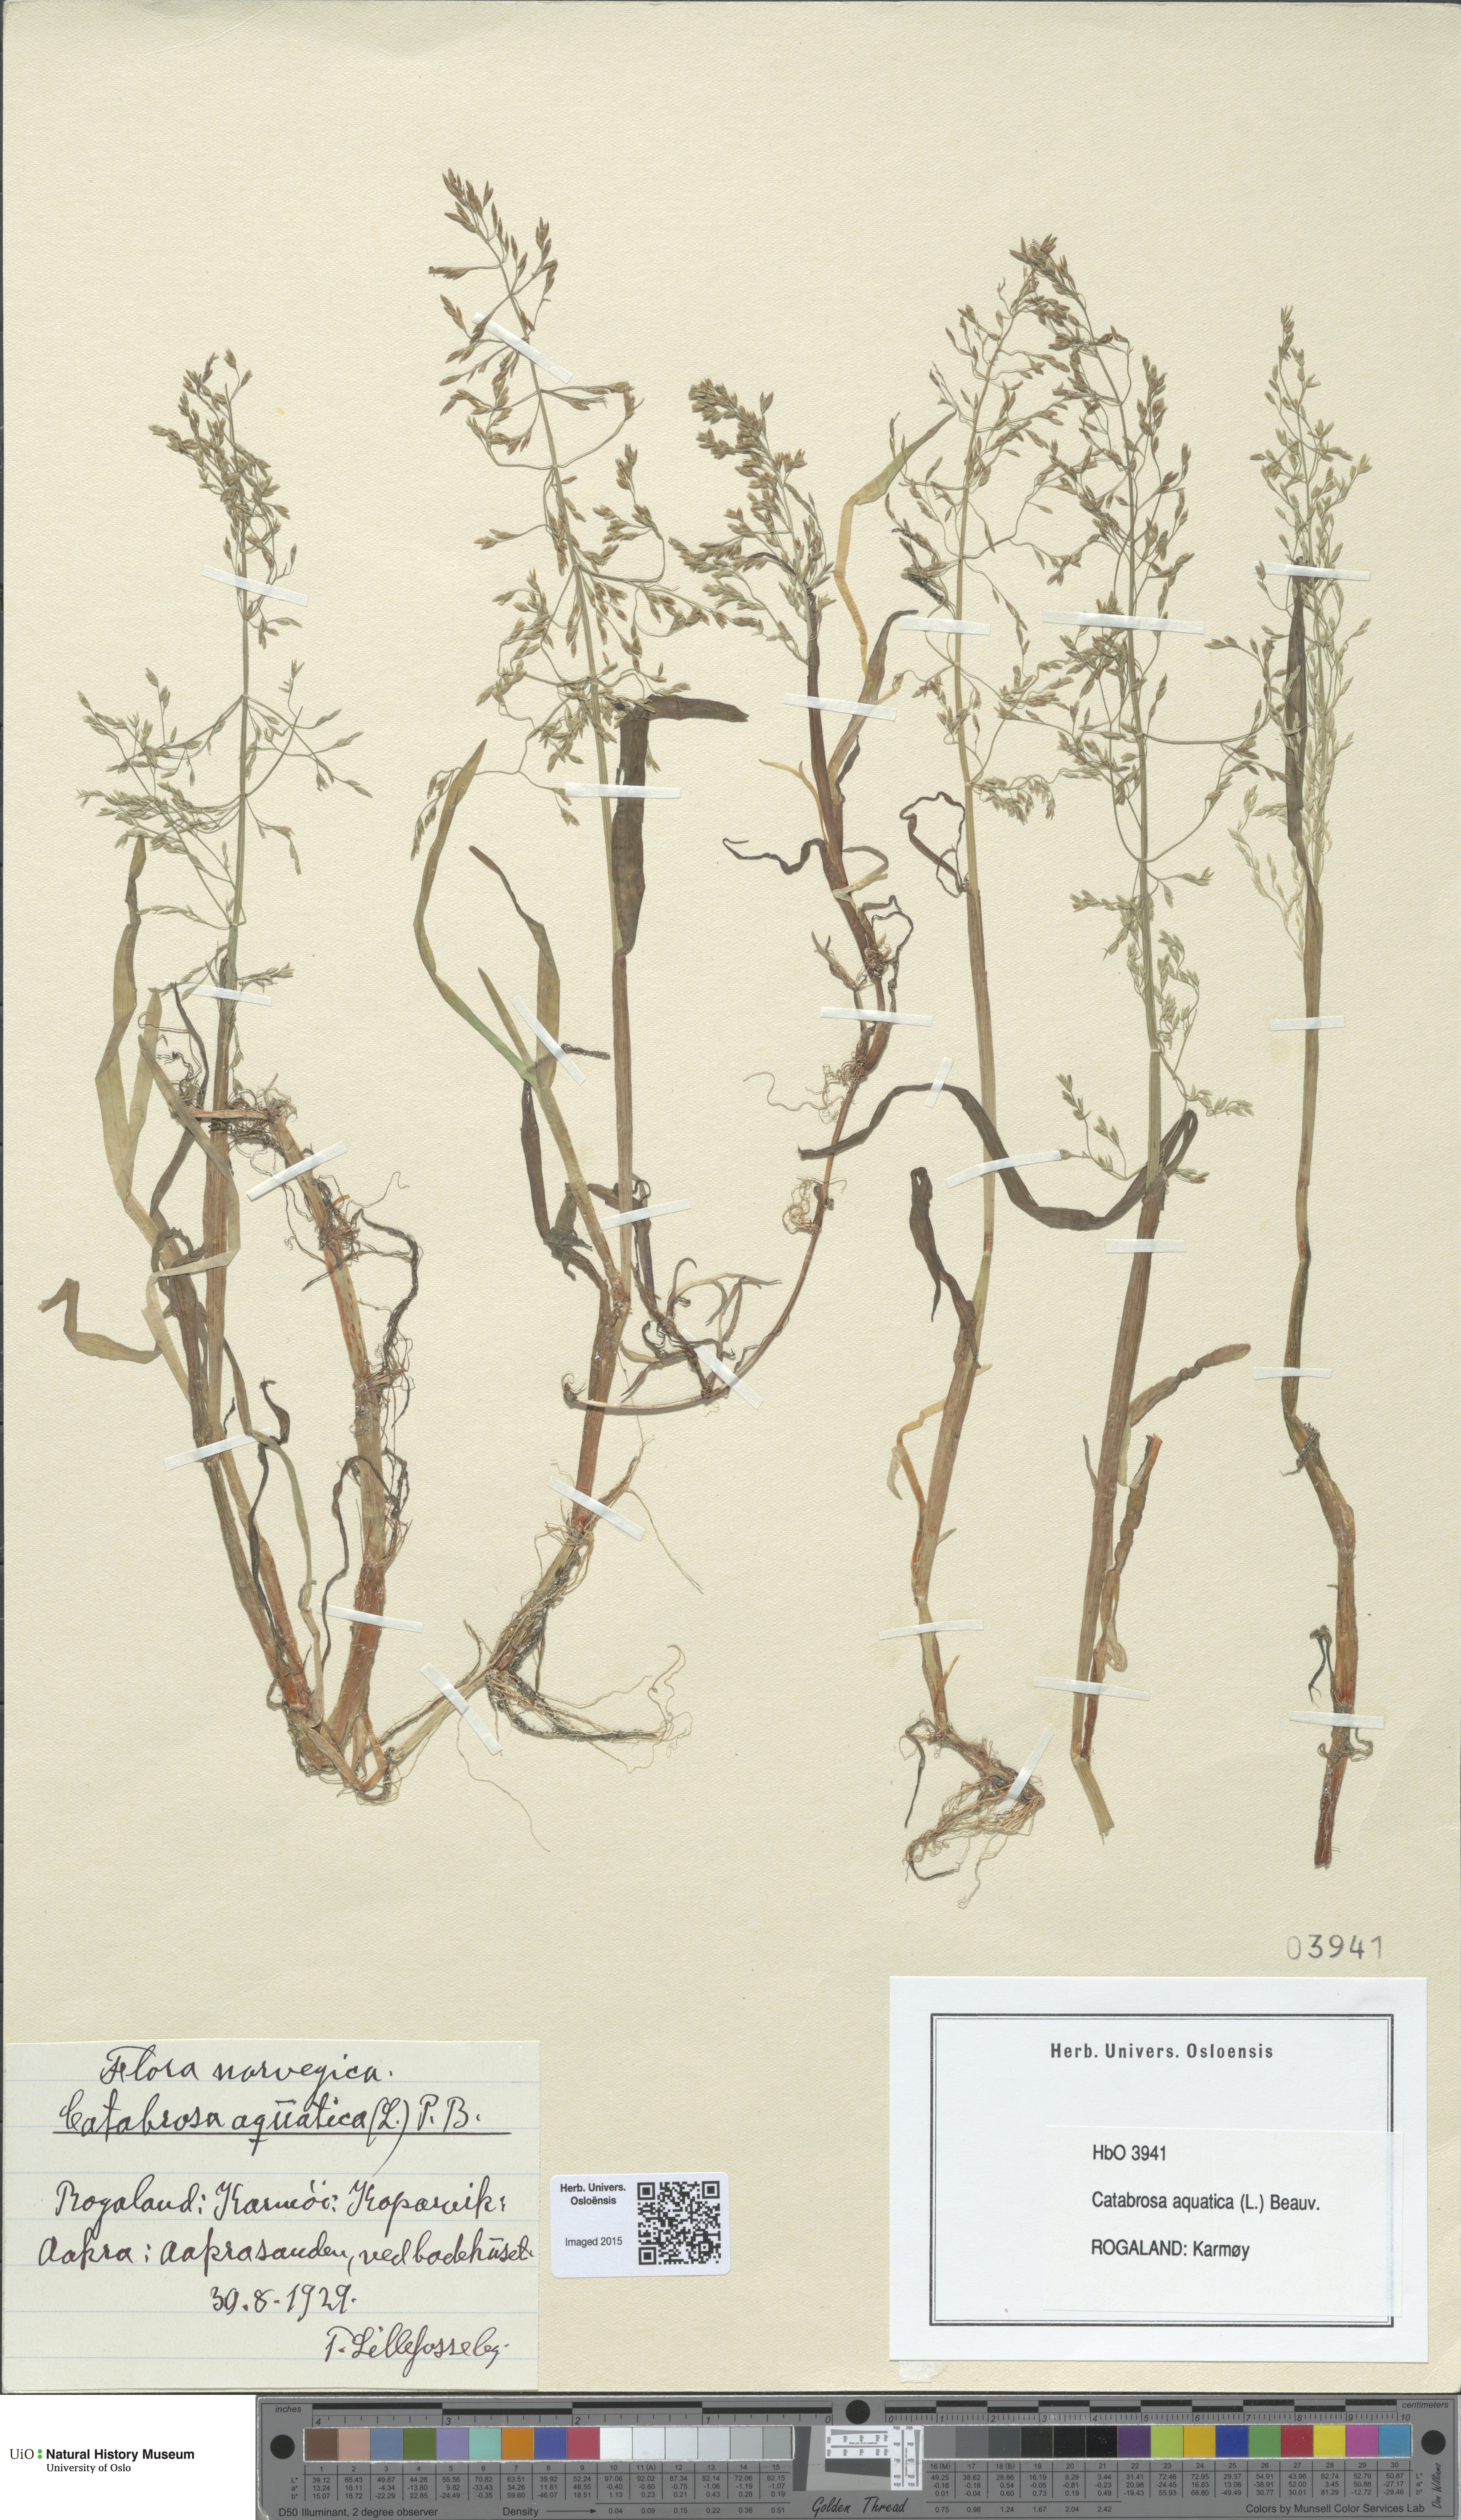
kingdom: Plantae
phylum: Tracheophyta
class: Liliopsida
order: Poales
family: Poaceae
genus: Catabrosa
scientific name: Catabrosa aquatica
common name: Whorl-grass
